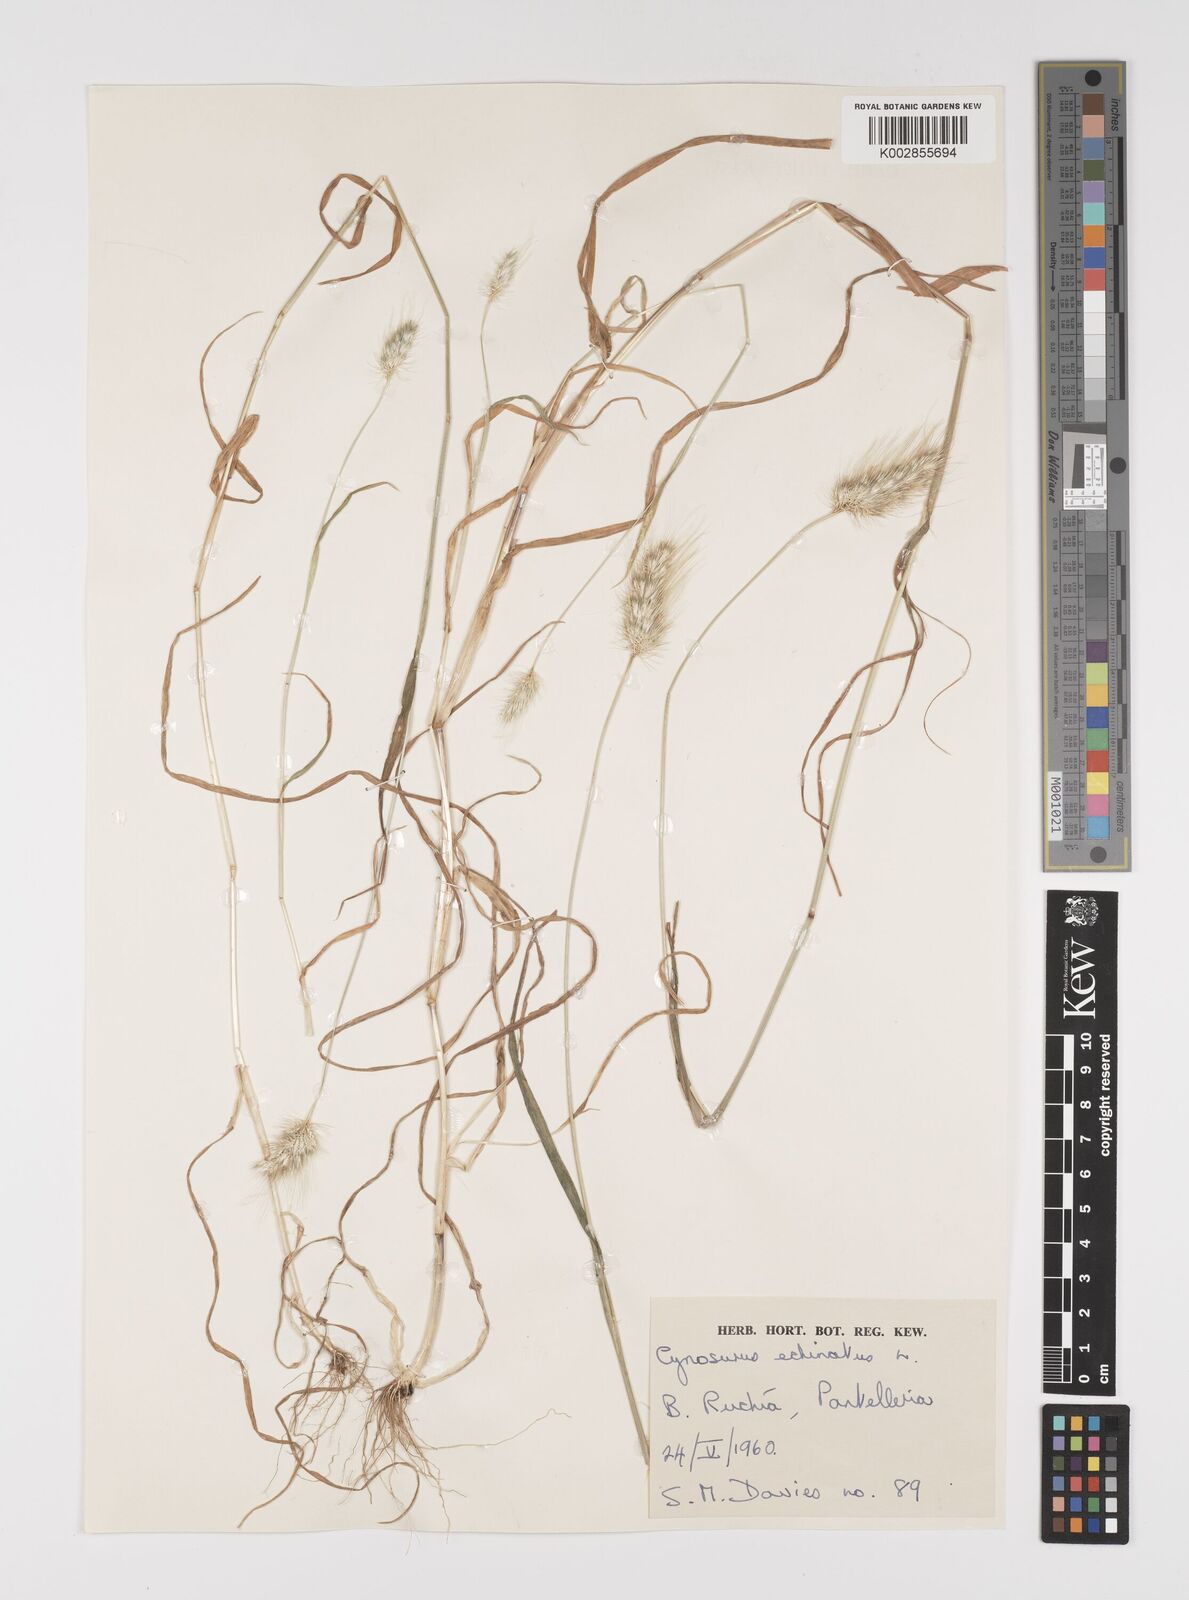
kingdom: Plantae
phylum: Tracheophyta
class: Liliopsida
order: Poales
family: Poaceae
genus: Cynosurus
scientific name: Cynosurus echinatus
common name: Rough dog's-tail
